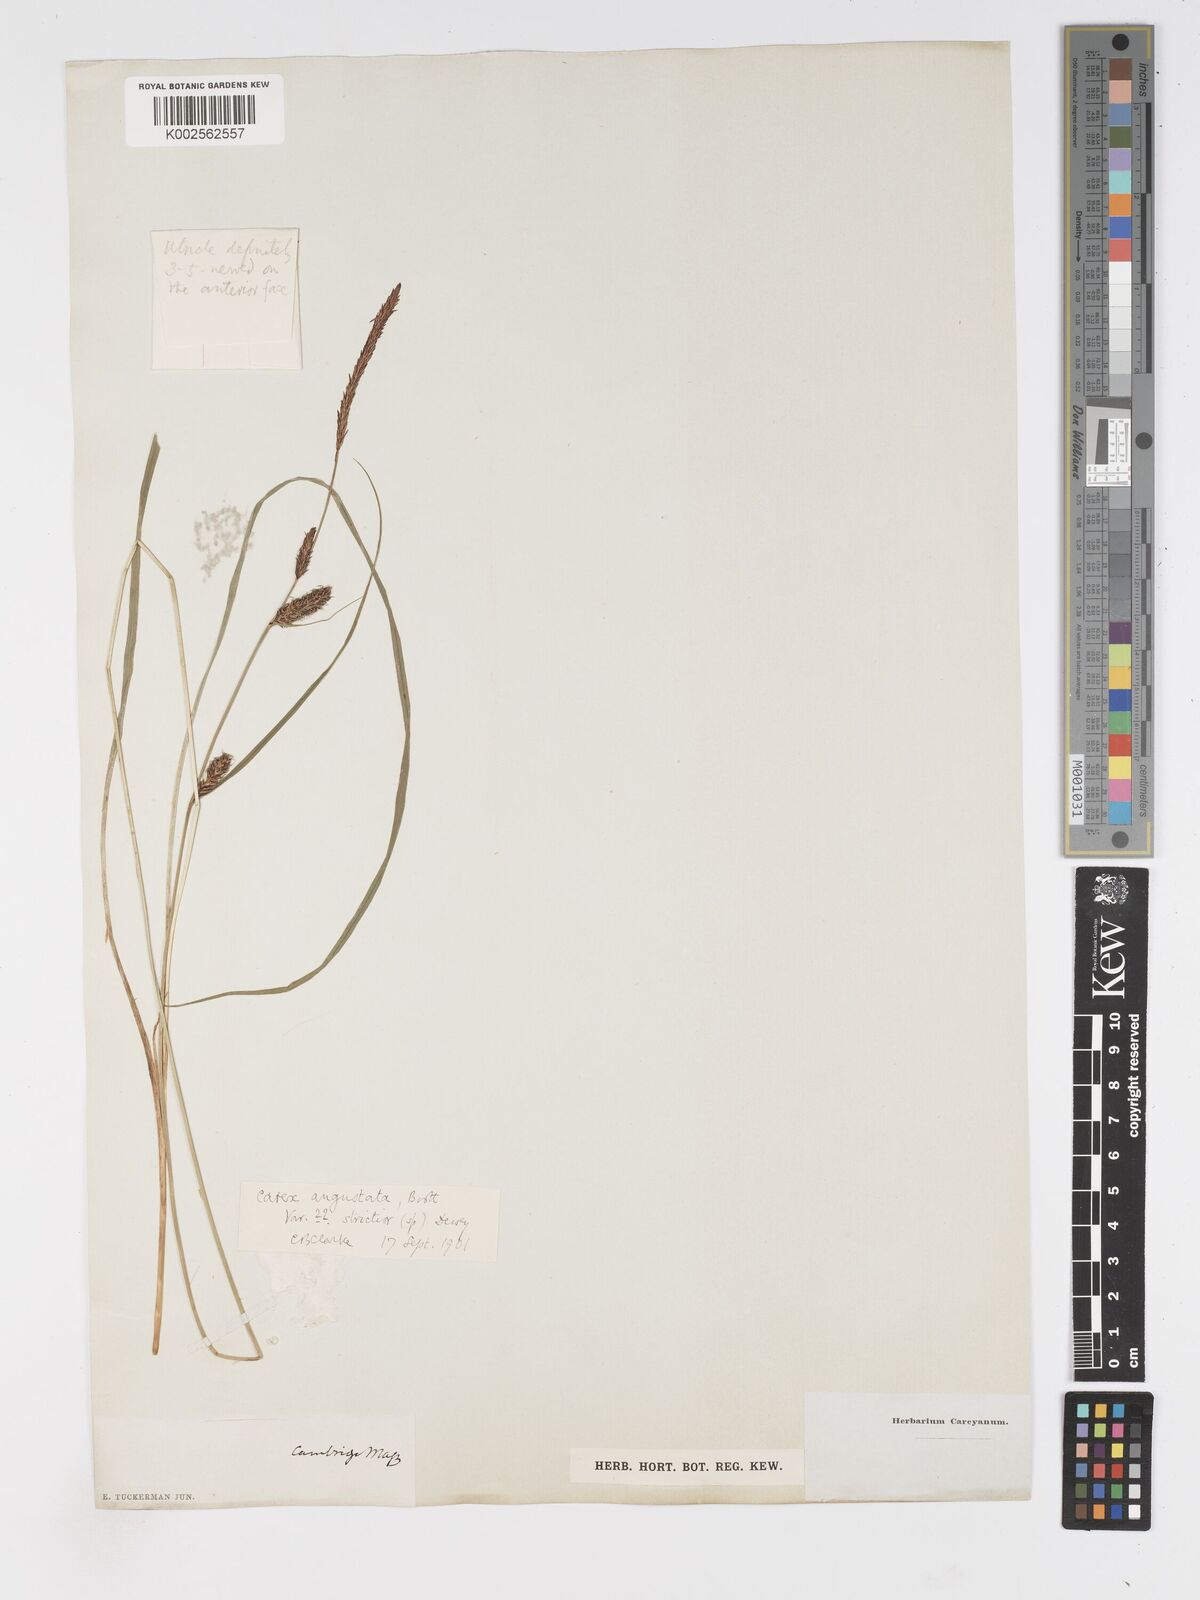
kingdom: Plantae
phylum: Tracheophyta
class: Liliopsida
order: Poales
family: Cyperaceae
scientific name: Cyperaceae
